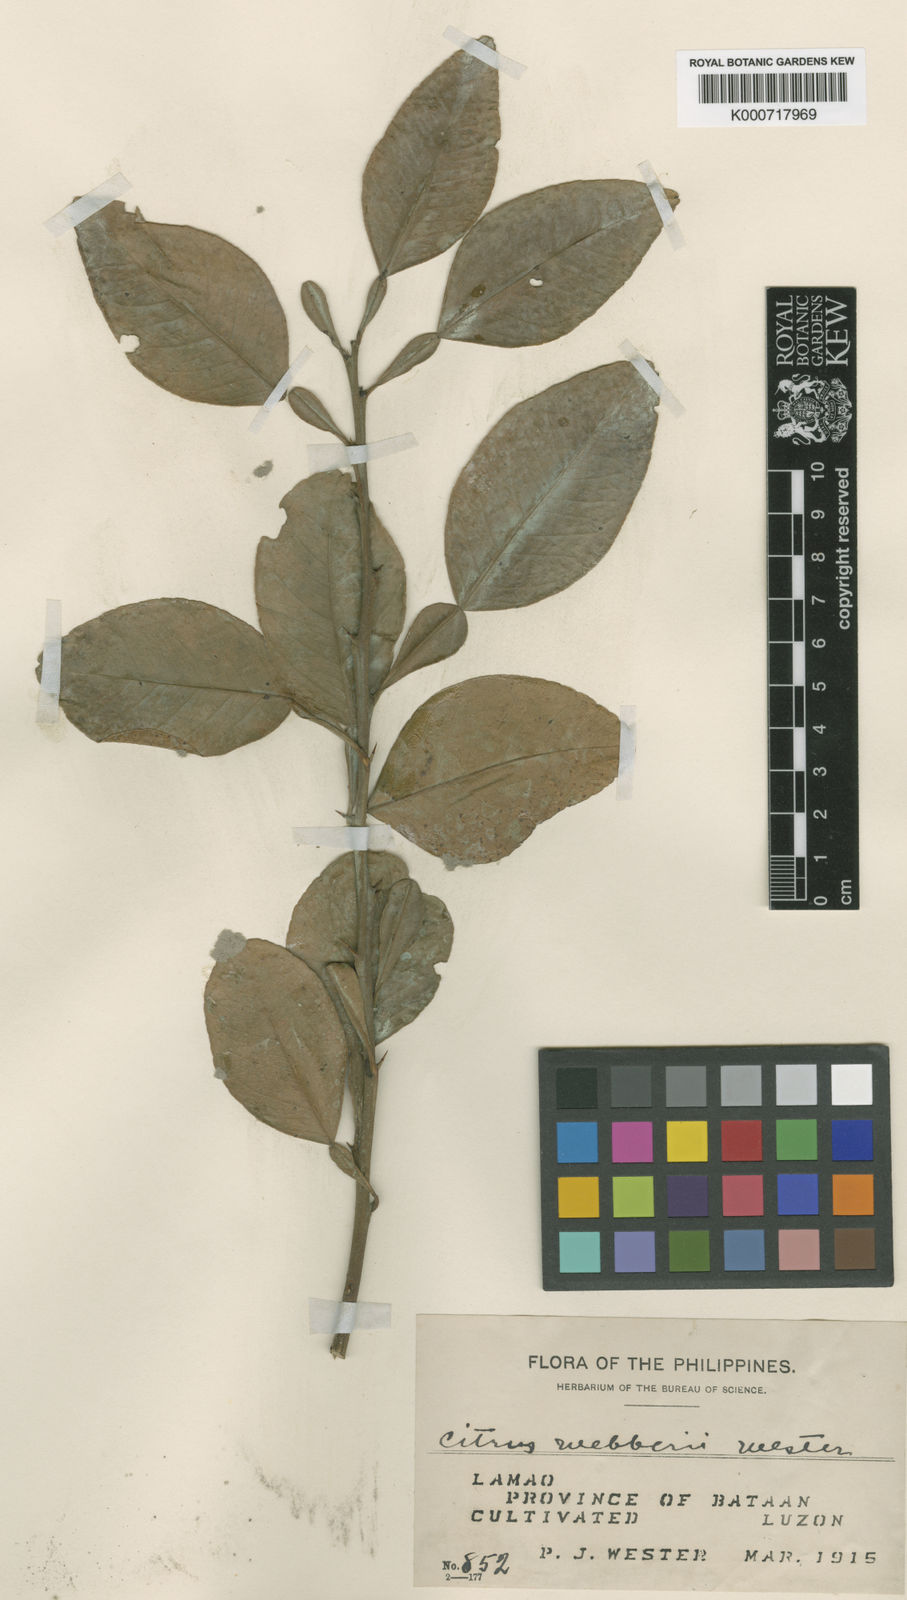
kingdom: Plantae
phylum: Tracheophyta
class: Magnoliopsida
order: Sapindales
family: Rutaceae
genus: Citrus
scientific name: Citrus webberi
